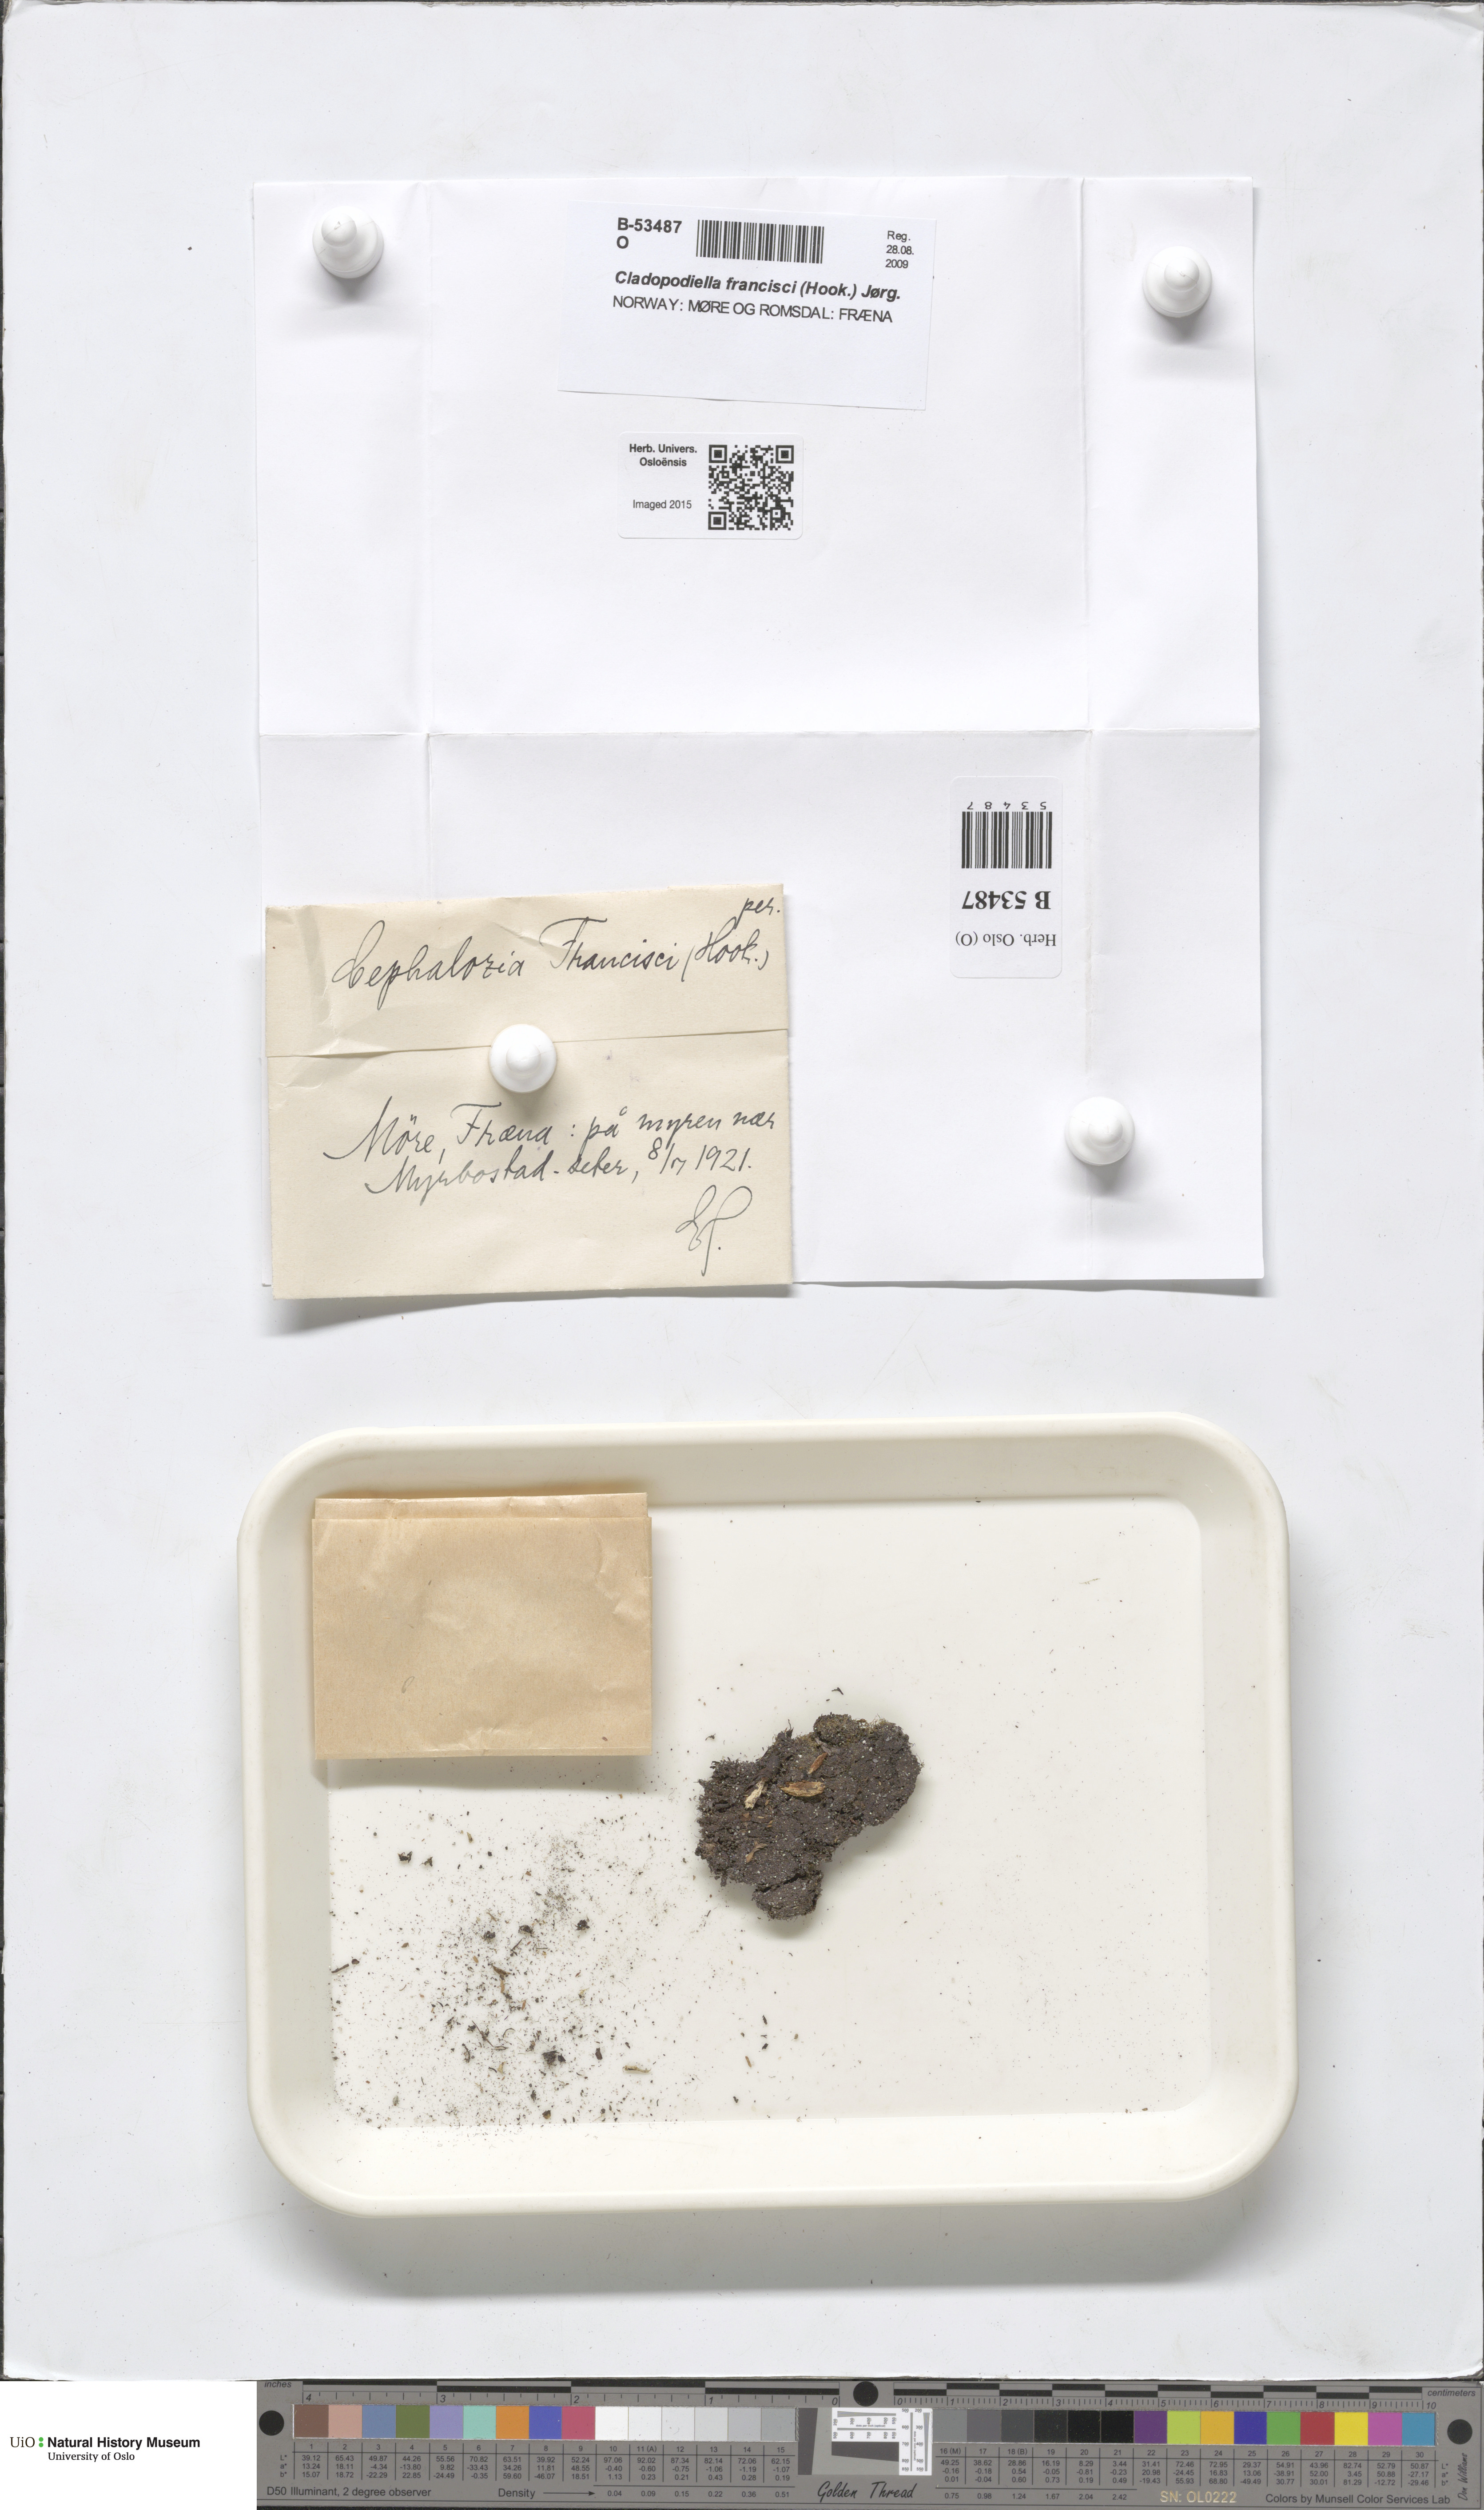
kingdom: Plantae
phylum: Marchantiophyta
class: Jungermanniopsida
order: Jungermanniales
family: Cephaloziaceae
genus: Odontoschisma
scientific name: Odontoschisma francisci
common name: Holt notchwort
